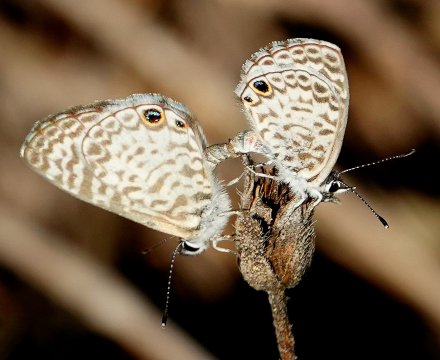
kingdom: Animalia
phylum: Arthropoda
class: Insecta
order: Lepidoptera
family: Lycaenidae
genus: Leptotes
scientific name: Leptotes cassius
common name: Cassius Blue
